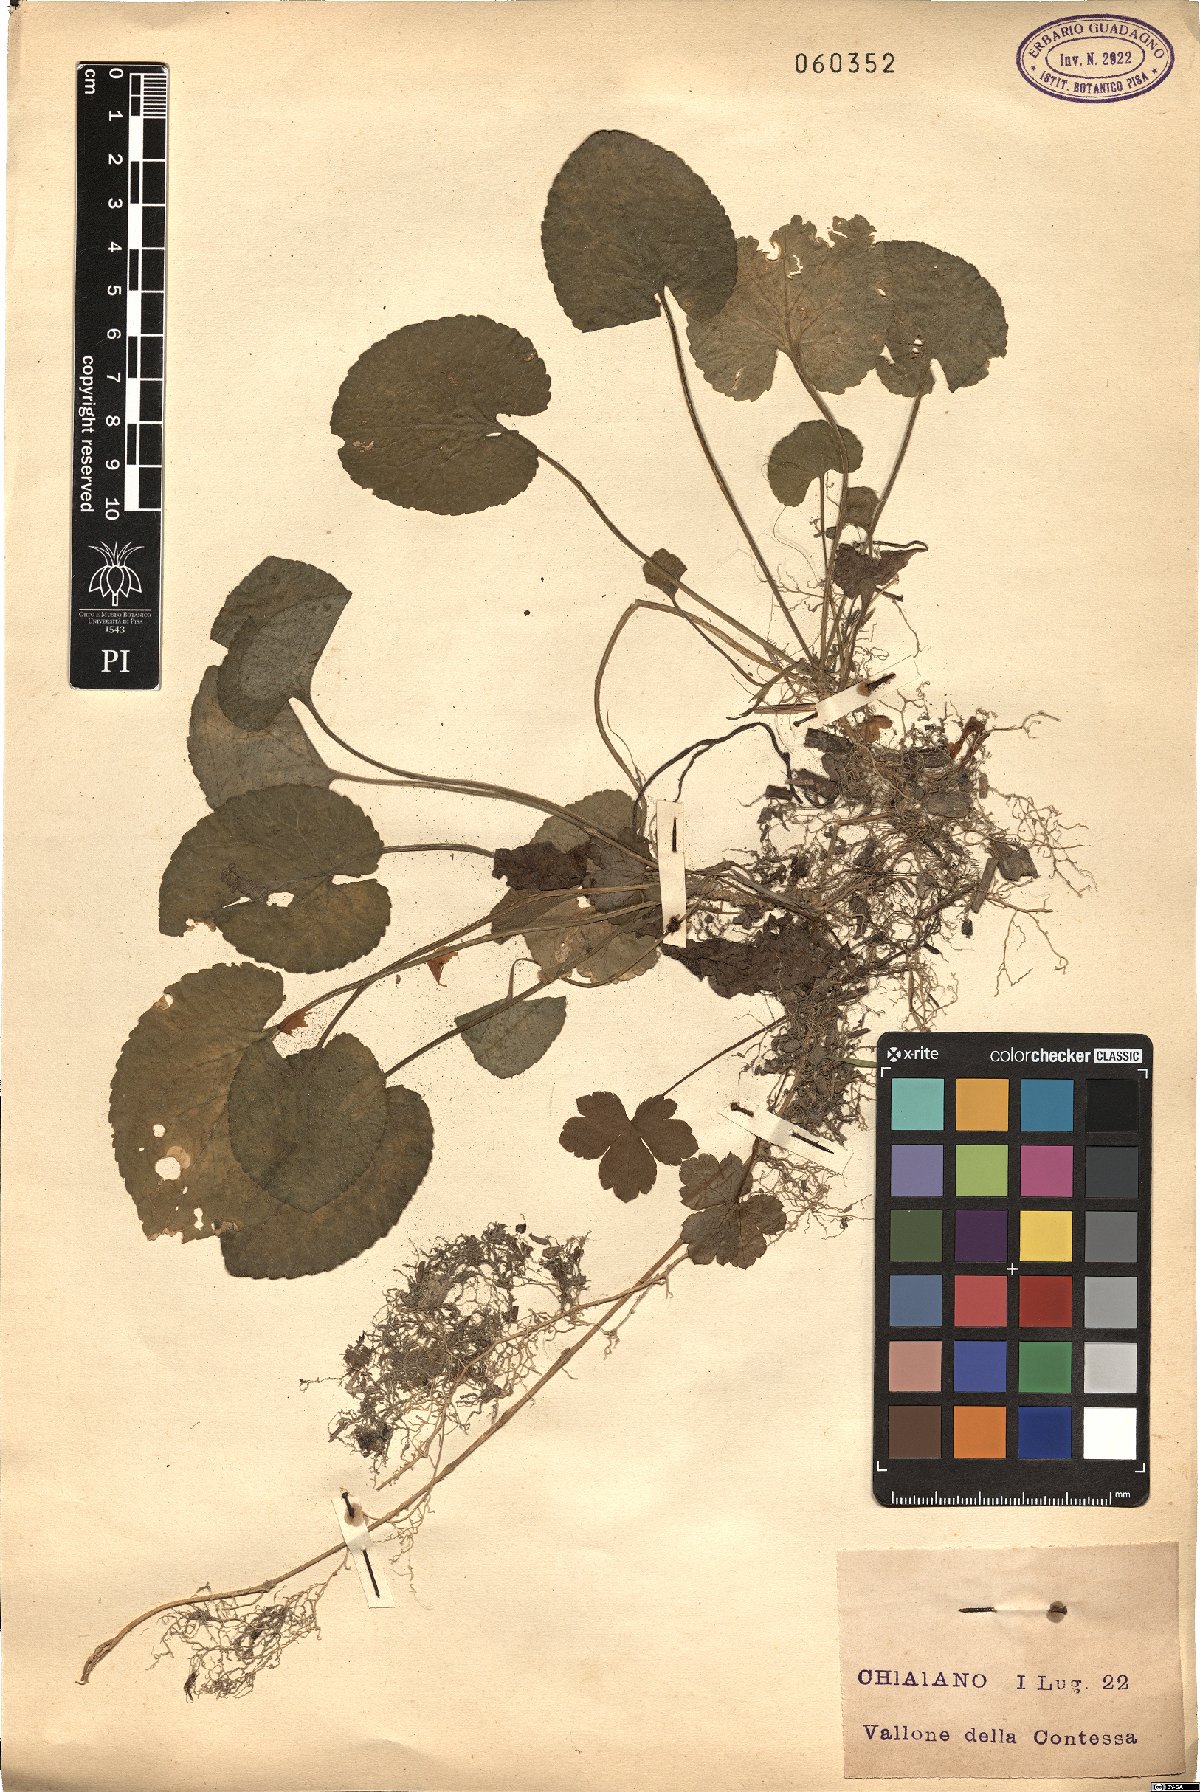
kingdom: Plantae
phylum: Tracheophyta
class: Magnoliopsida
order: Malpighiales
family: Violaceae
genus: Viola
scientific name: Viola
